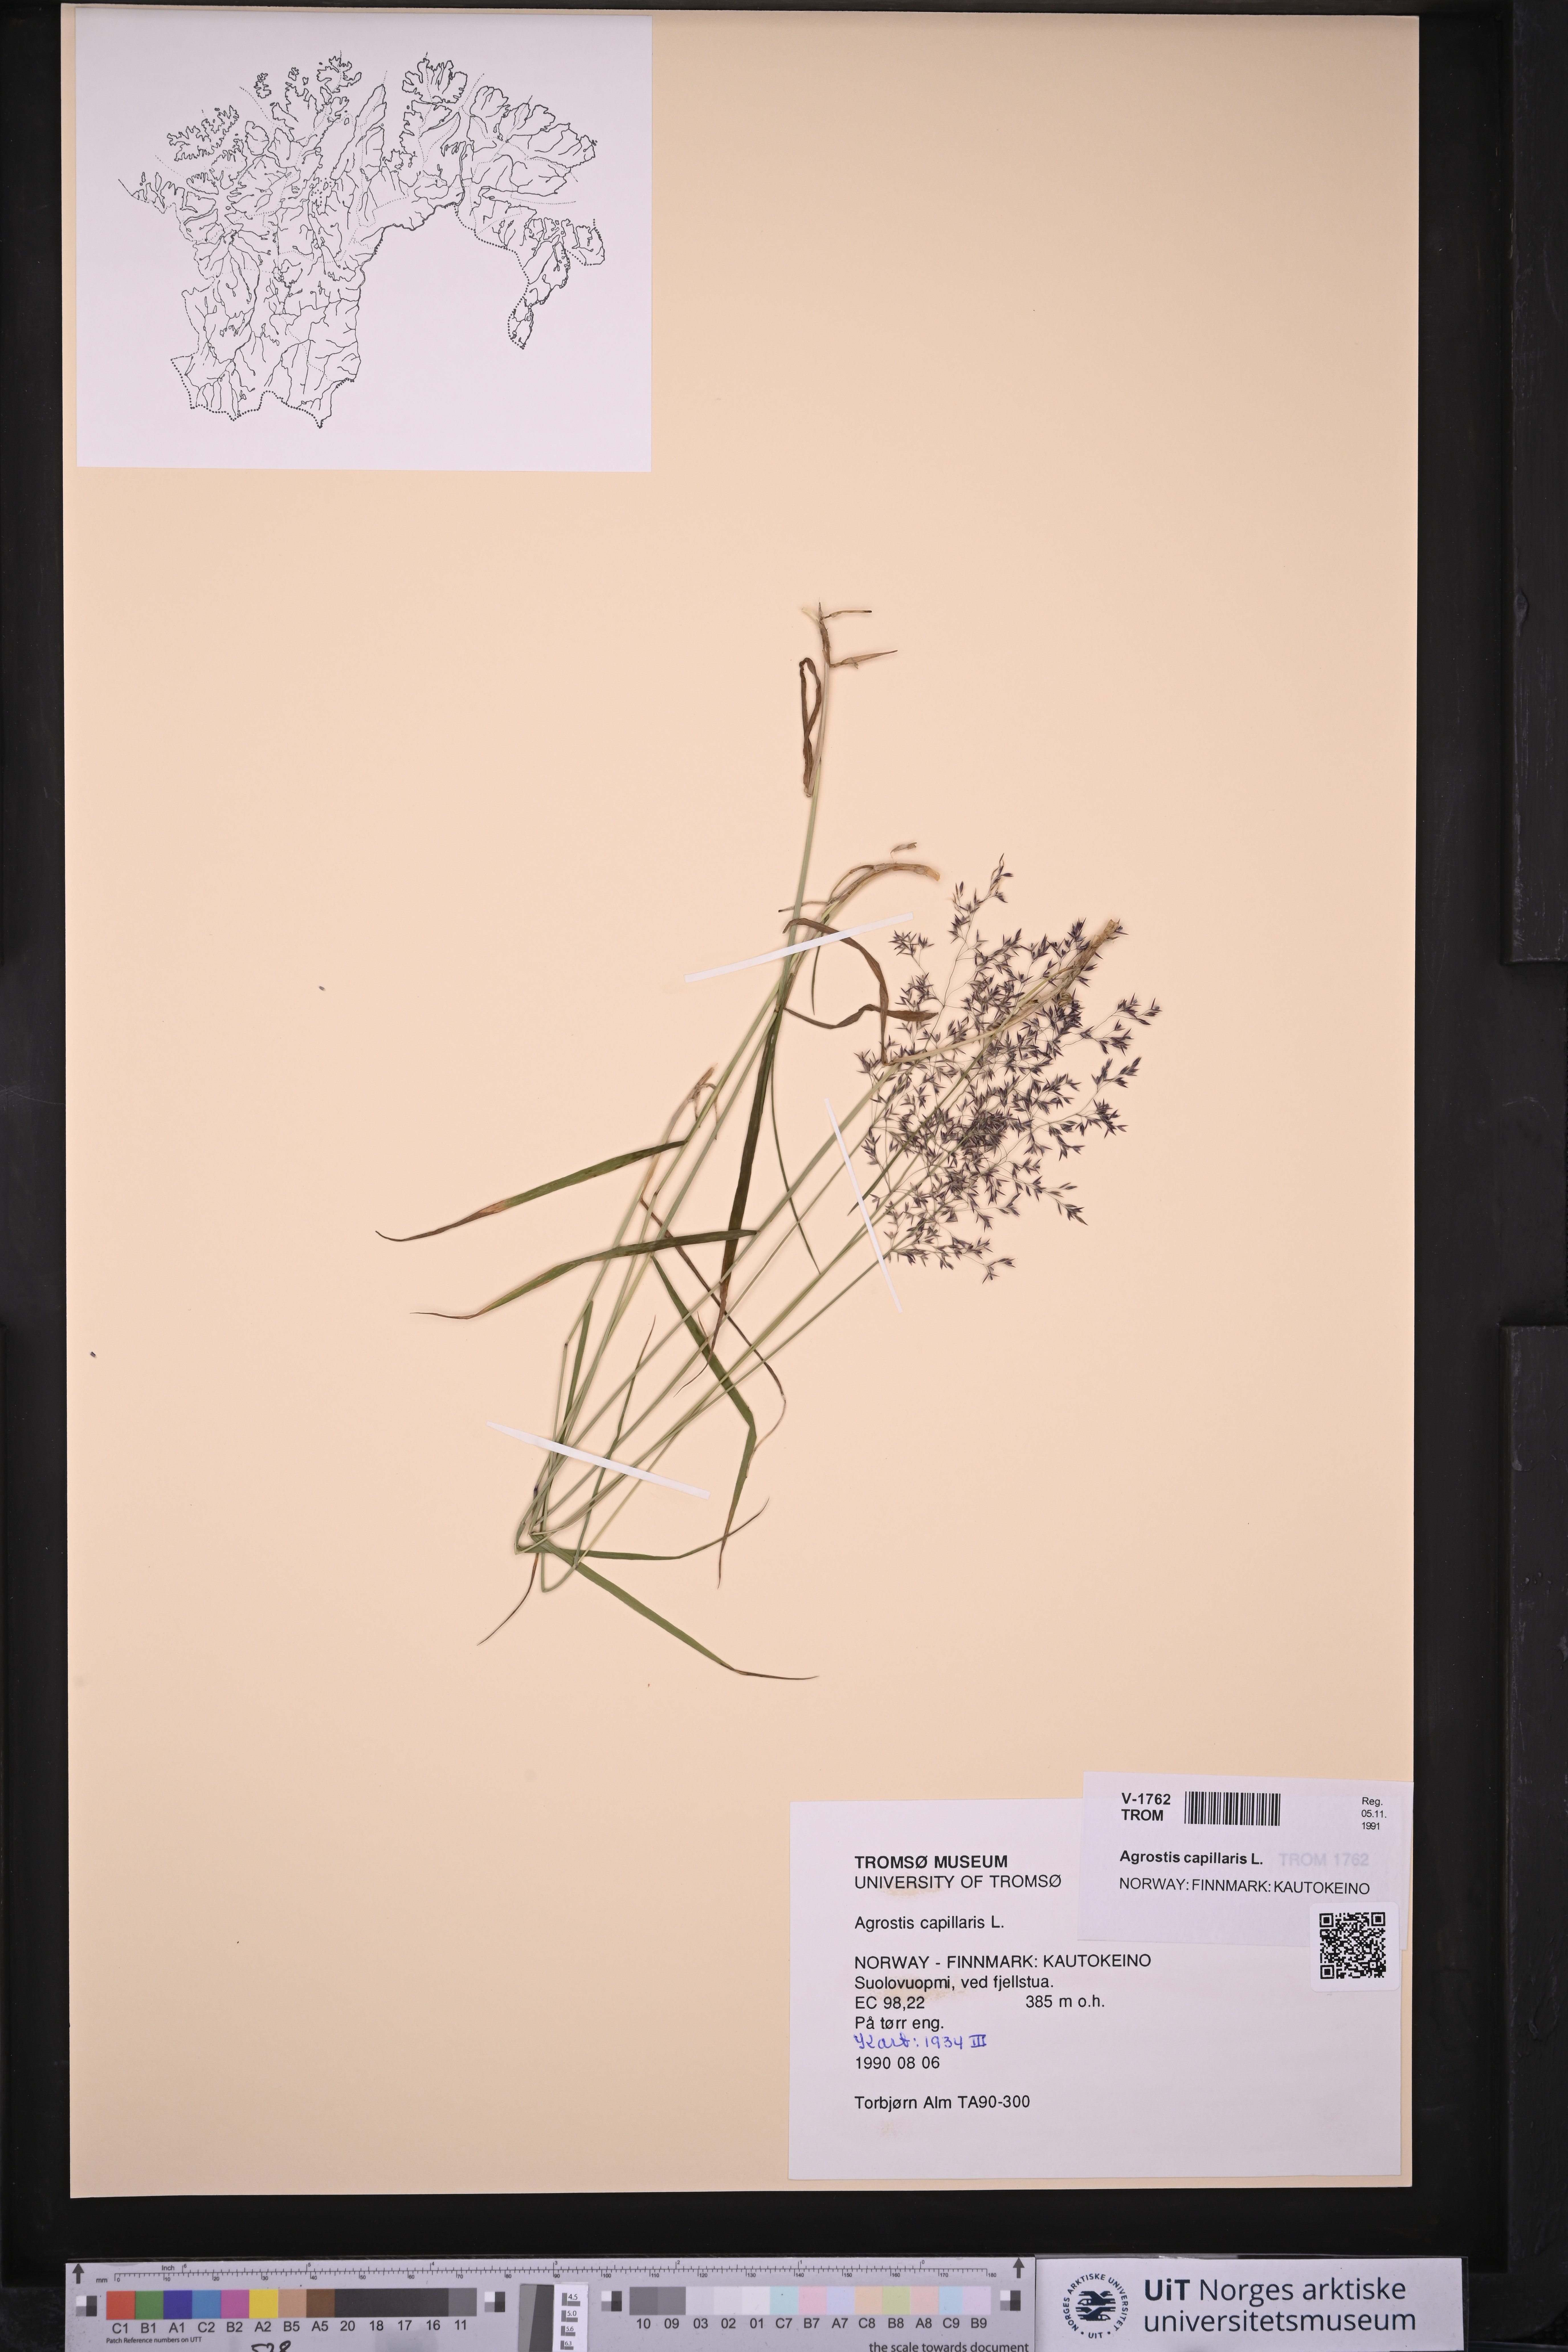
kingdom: Plantae
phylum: Tracheophyta
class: Liliopsida
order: Poales
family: Poaceae
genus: Agrostis
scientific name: Agrostis capillaris
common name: Colonial bentgrass
